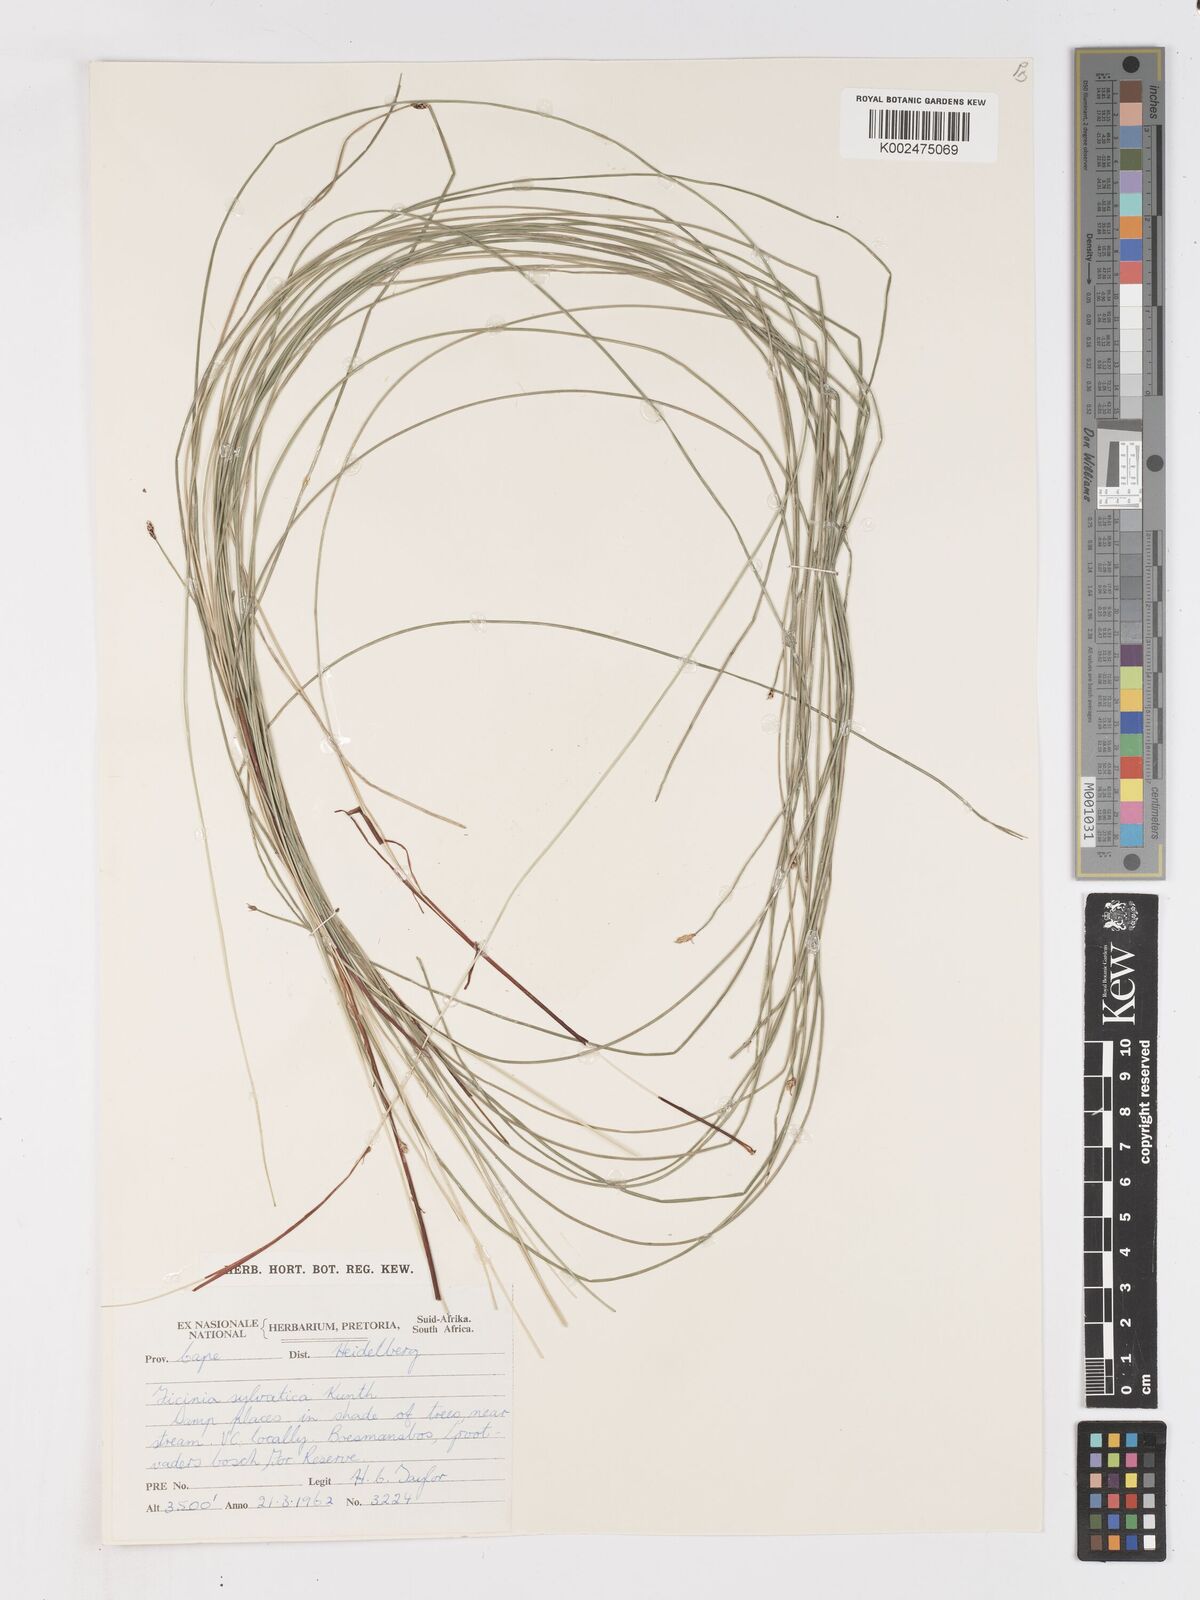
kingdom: Plantae
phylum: Tracheophyta
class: Liliopsida
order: Poales
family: Cyperaceae
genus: Ficinia
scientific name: Ficinia sylvatica
